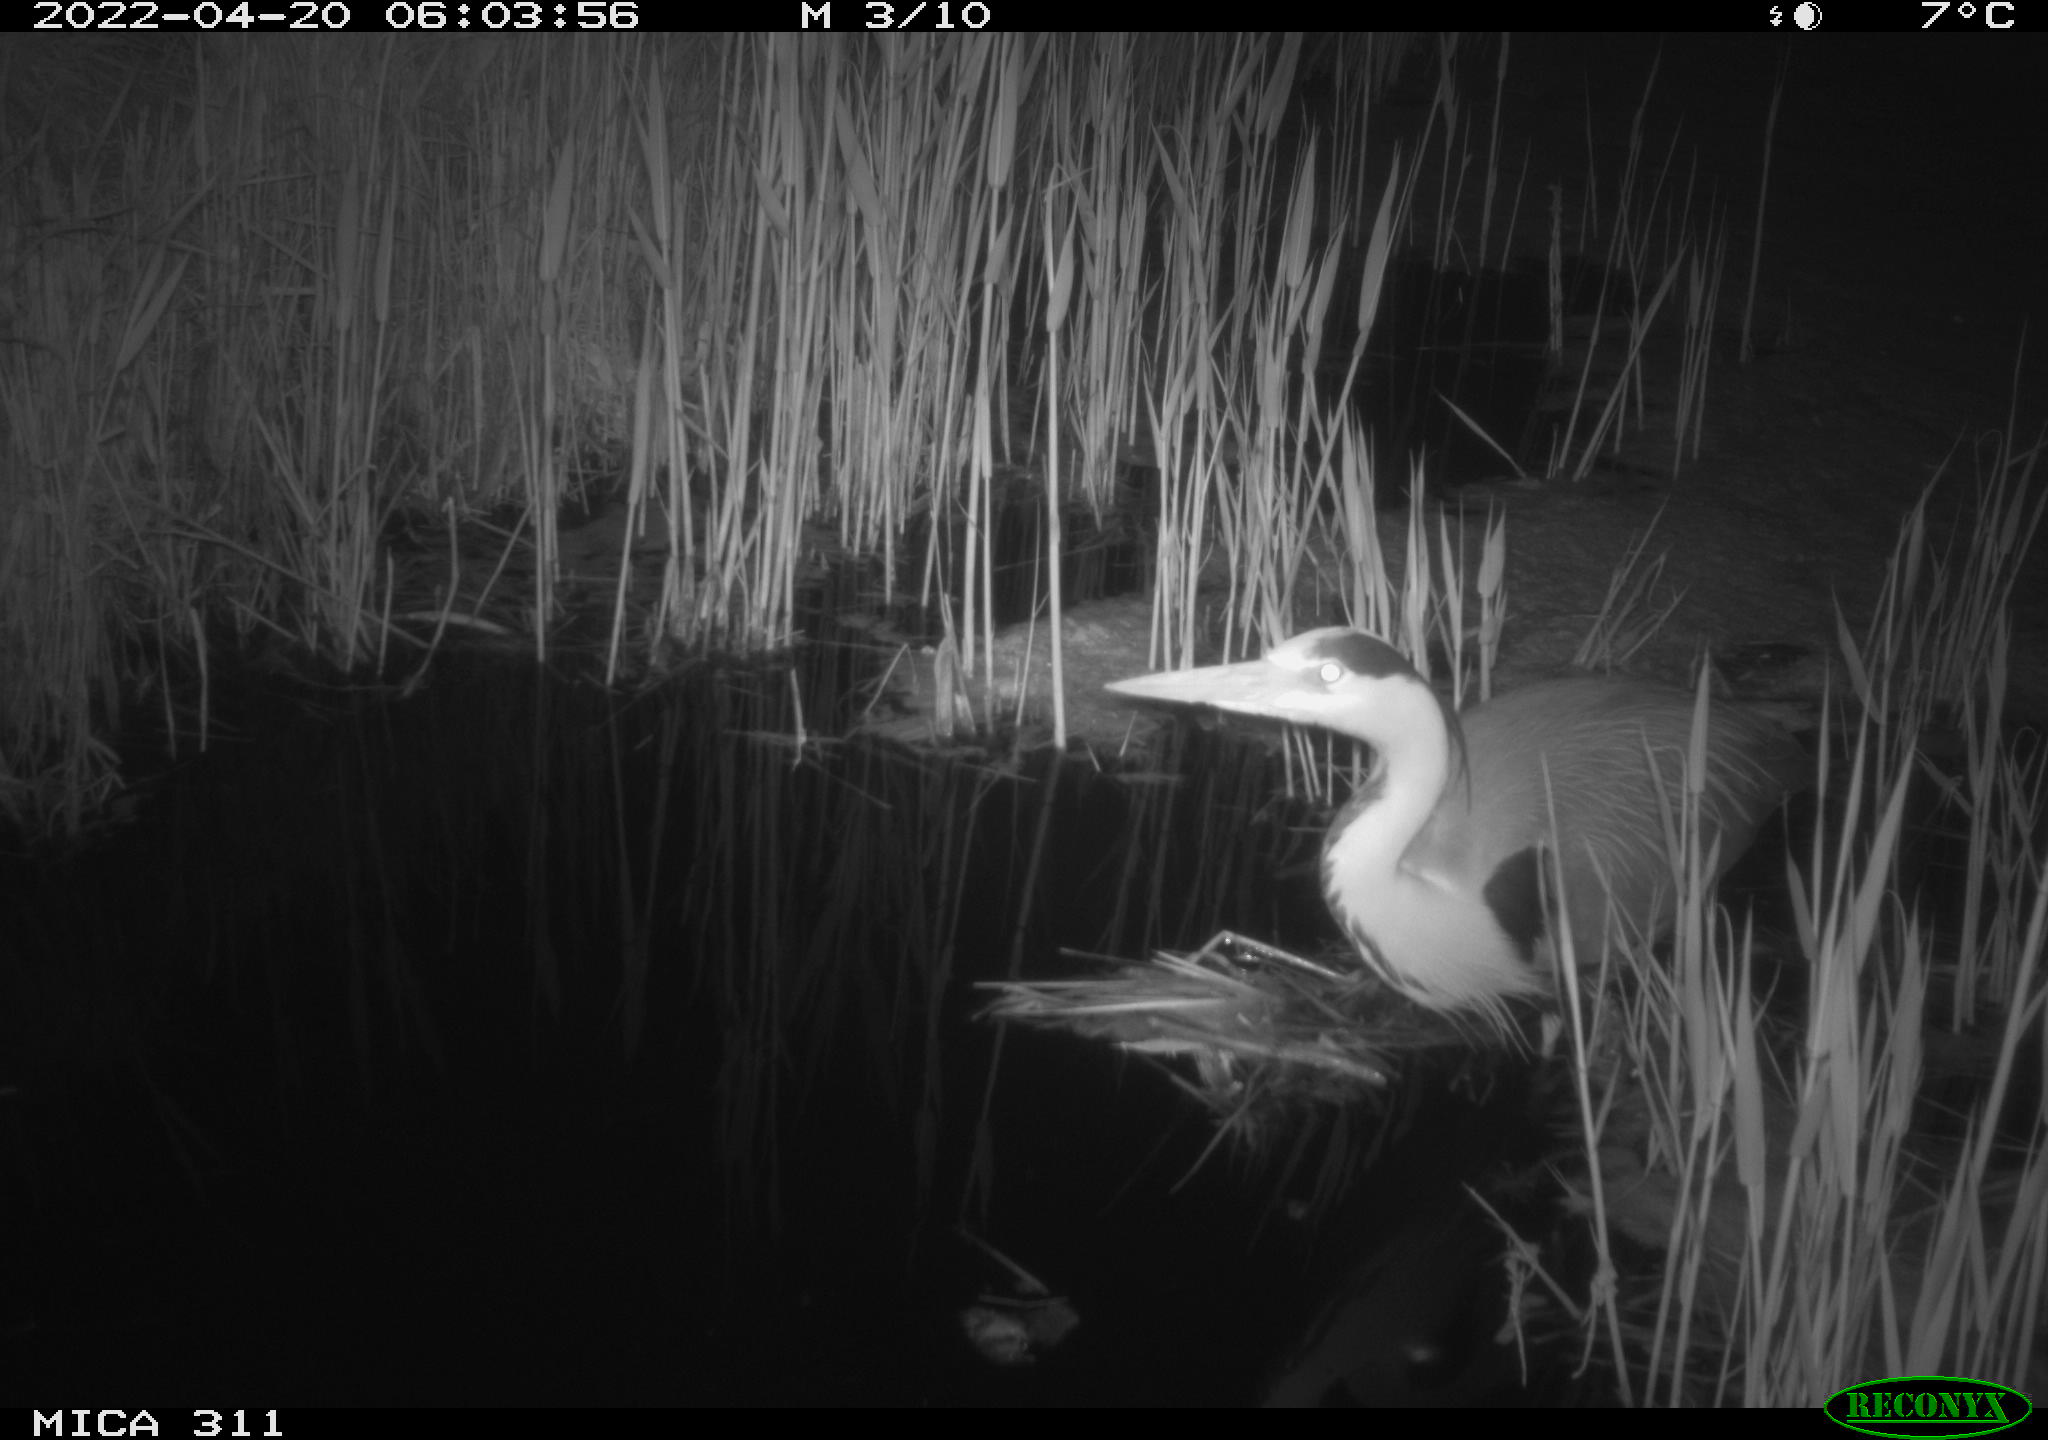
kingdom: Animalia
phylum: Chordata
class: Aves
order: Pelecaniformes
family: Ardeidae
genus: Ardea
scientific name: Ardea
